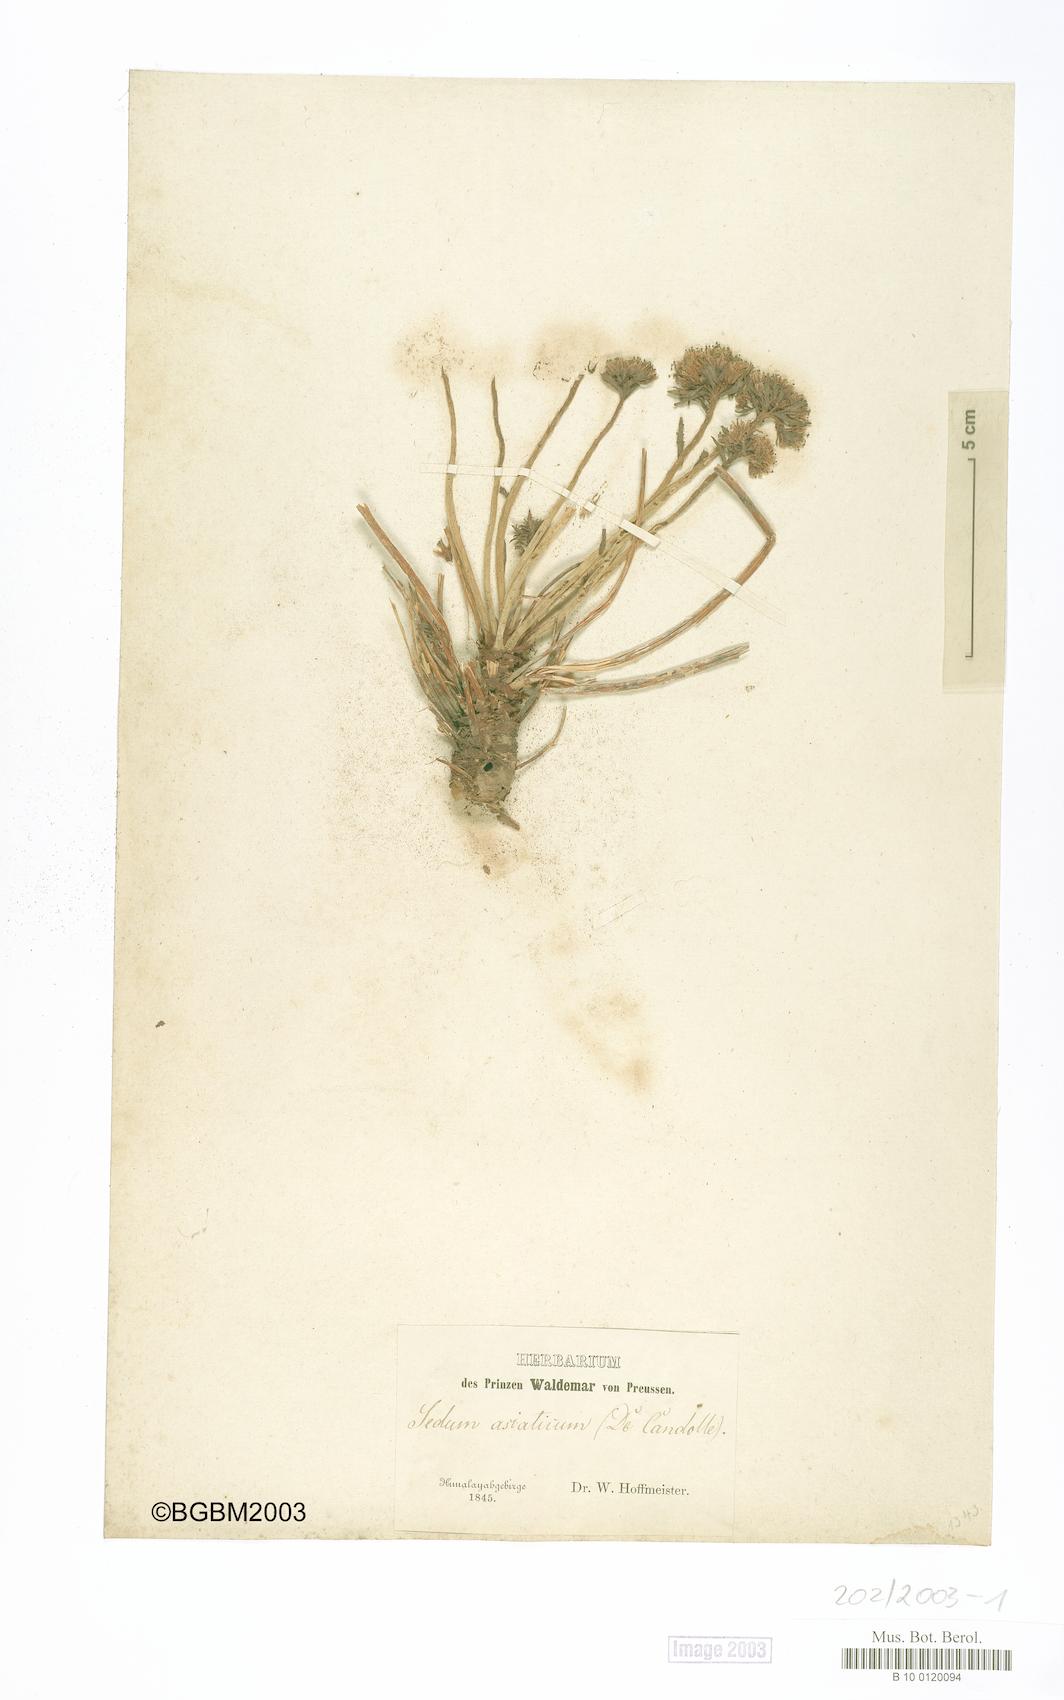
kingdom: Plantae
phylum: Tracheophyta
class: Magnoliopsida
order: Saxifragales
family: Crassulaceae
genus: Rhodiola
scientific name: Rhodiola
